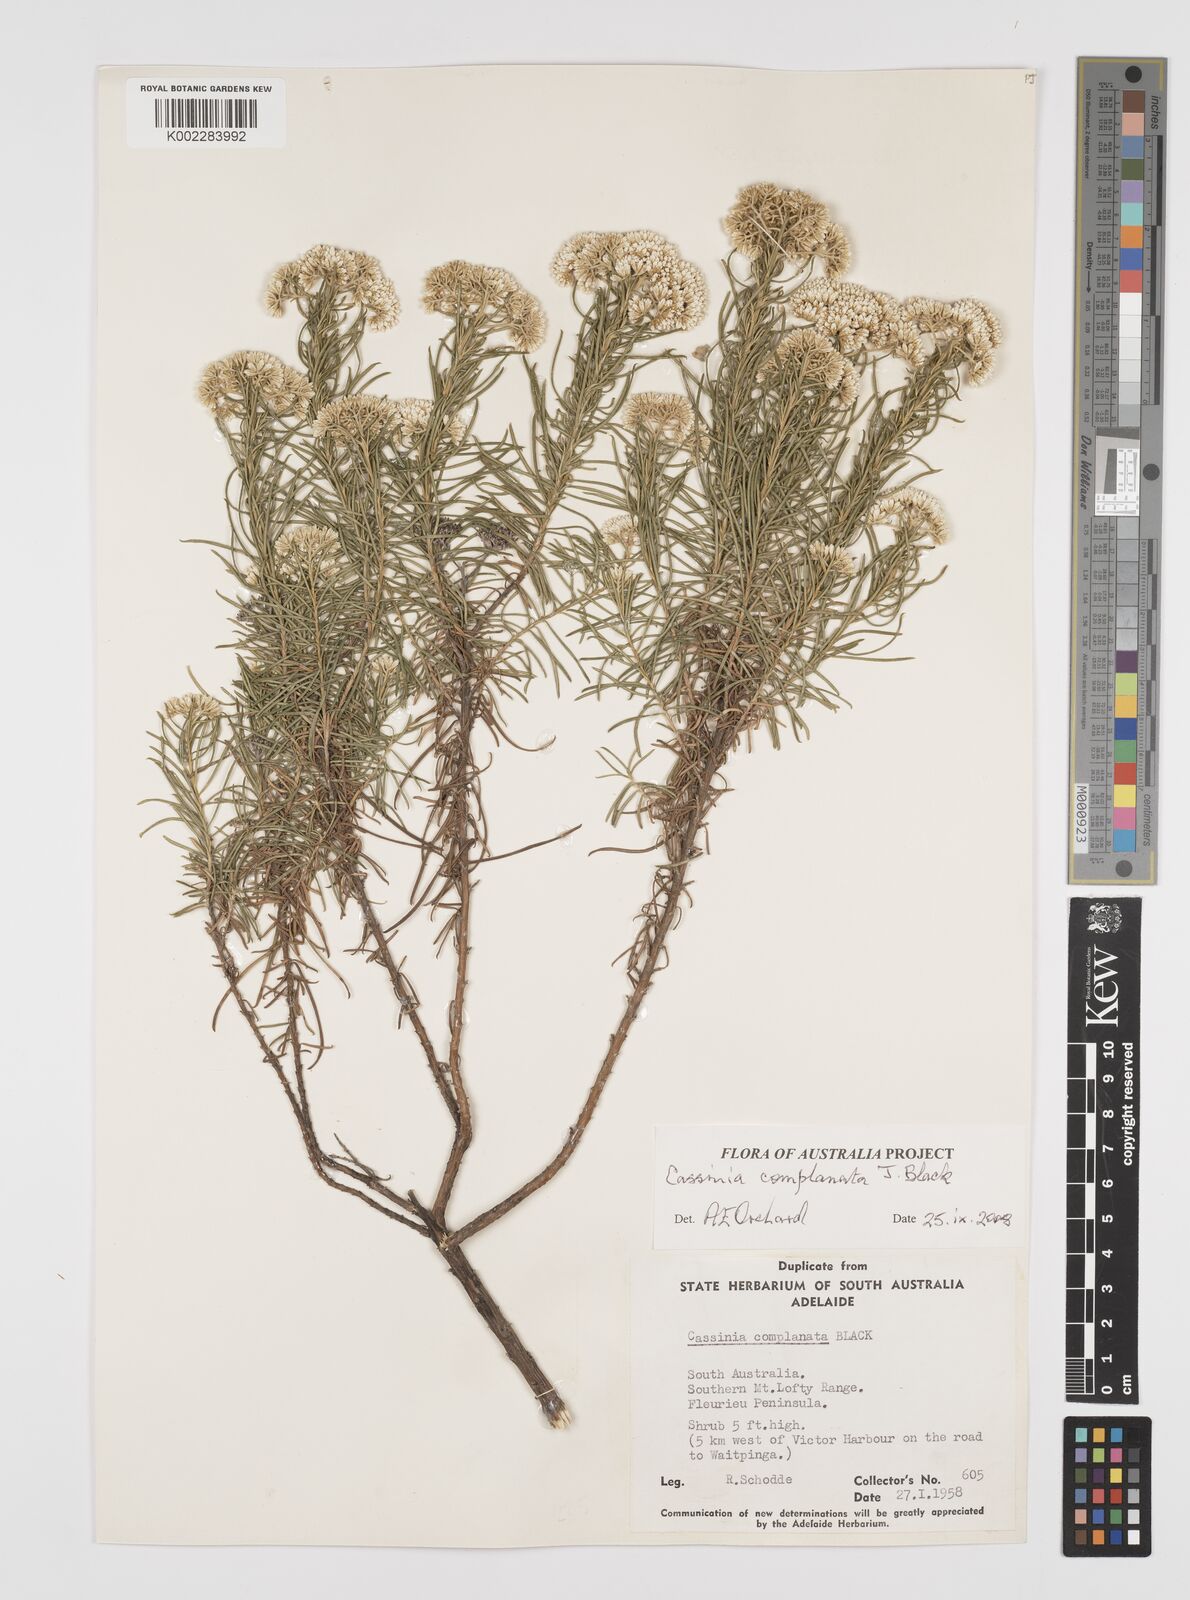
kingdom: Plantae
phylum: Tracheophyta
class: Magnoliopsida
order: Asterales
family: Asteraceae
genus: Cassinia
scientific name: Cassinia complanata
